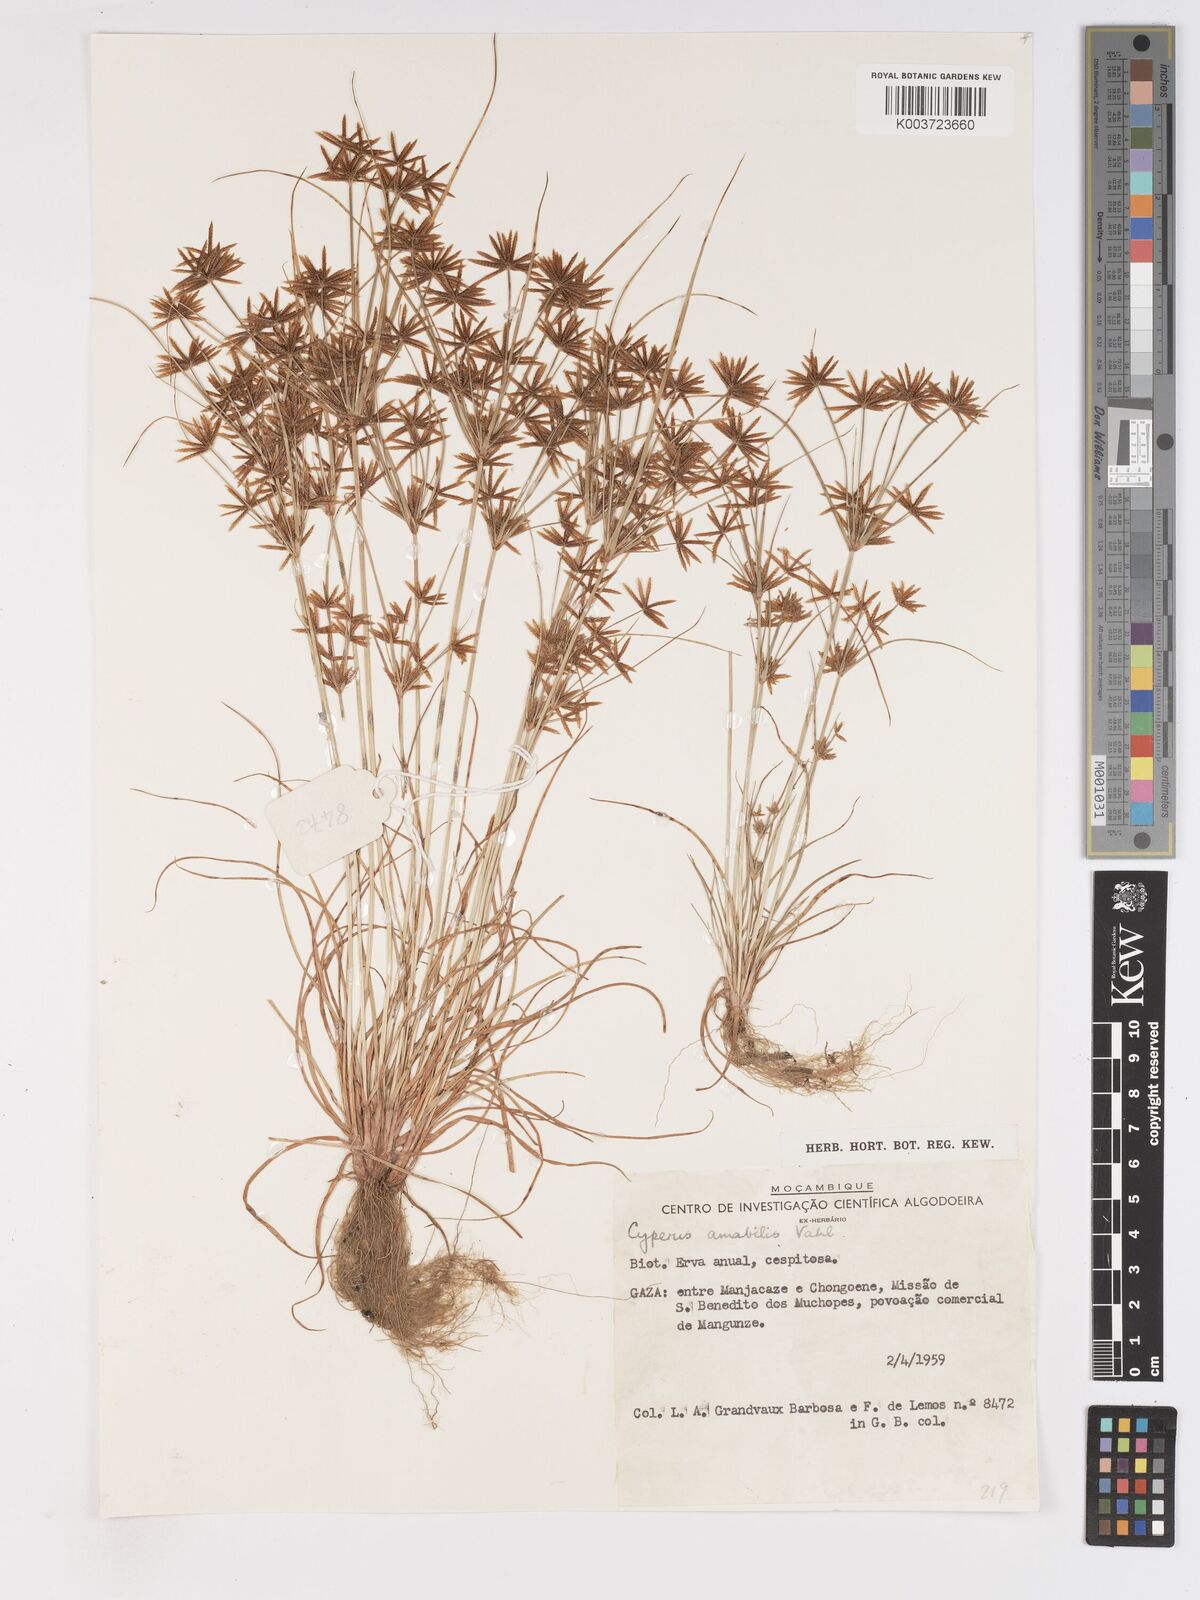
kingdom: Plantae
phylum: Tracheophyta
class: Liliopsida
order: Poales
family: Cyperaceae
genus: Cyperus
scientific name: Cyperus amabilis
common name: Foothill flat sedge
